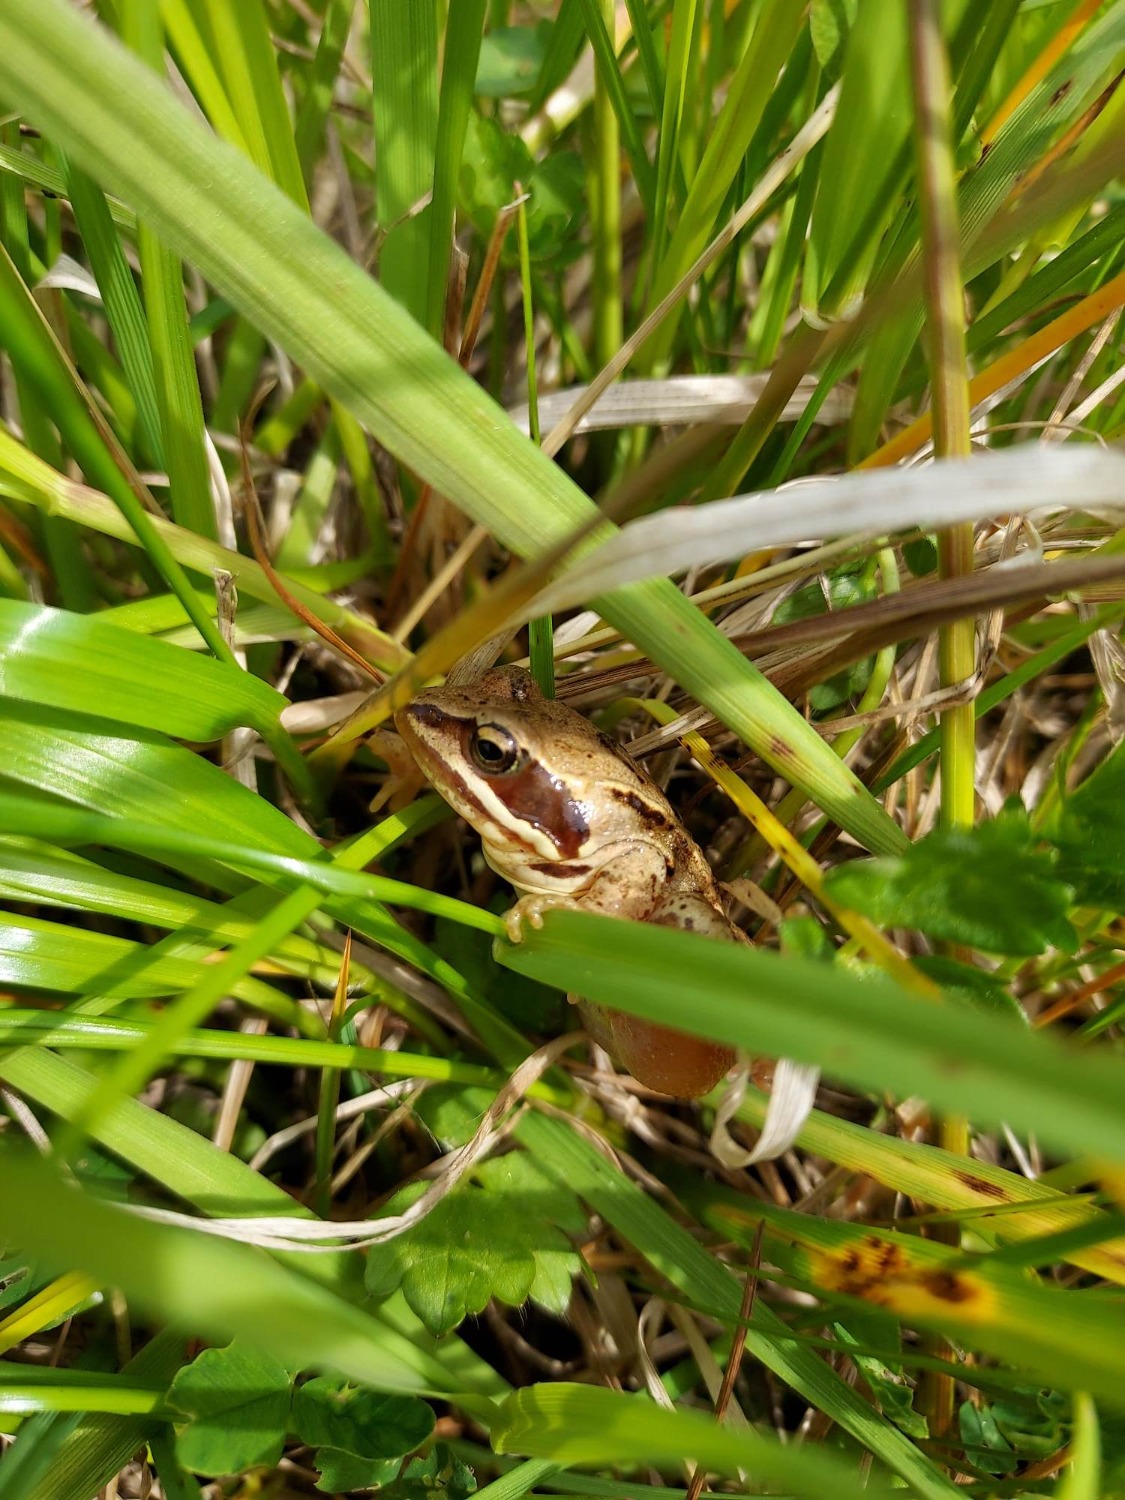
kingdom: Animalia
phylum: Chordata
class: Amphibia
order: Anura
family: Ranidae
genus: Rana
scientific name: Rana arvalis
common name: Spidssnudet frø
